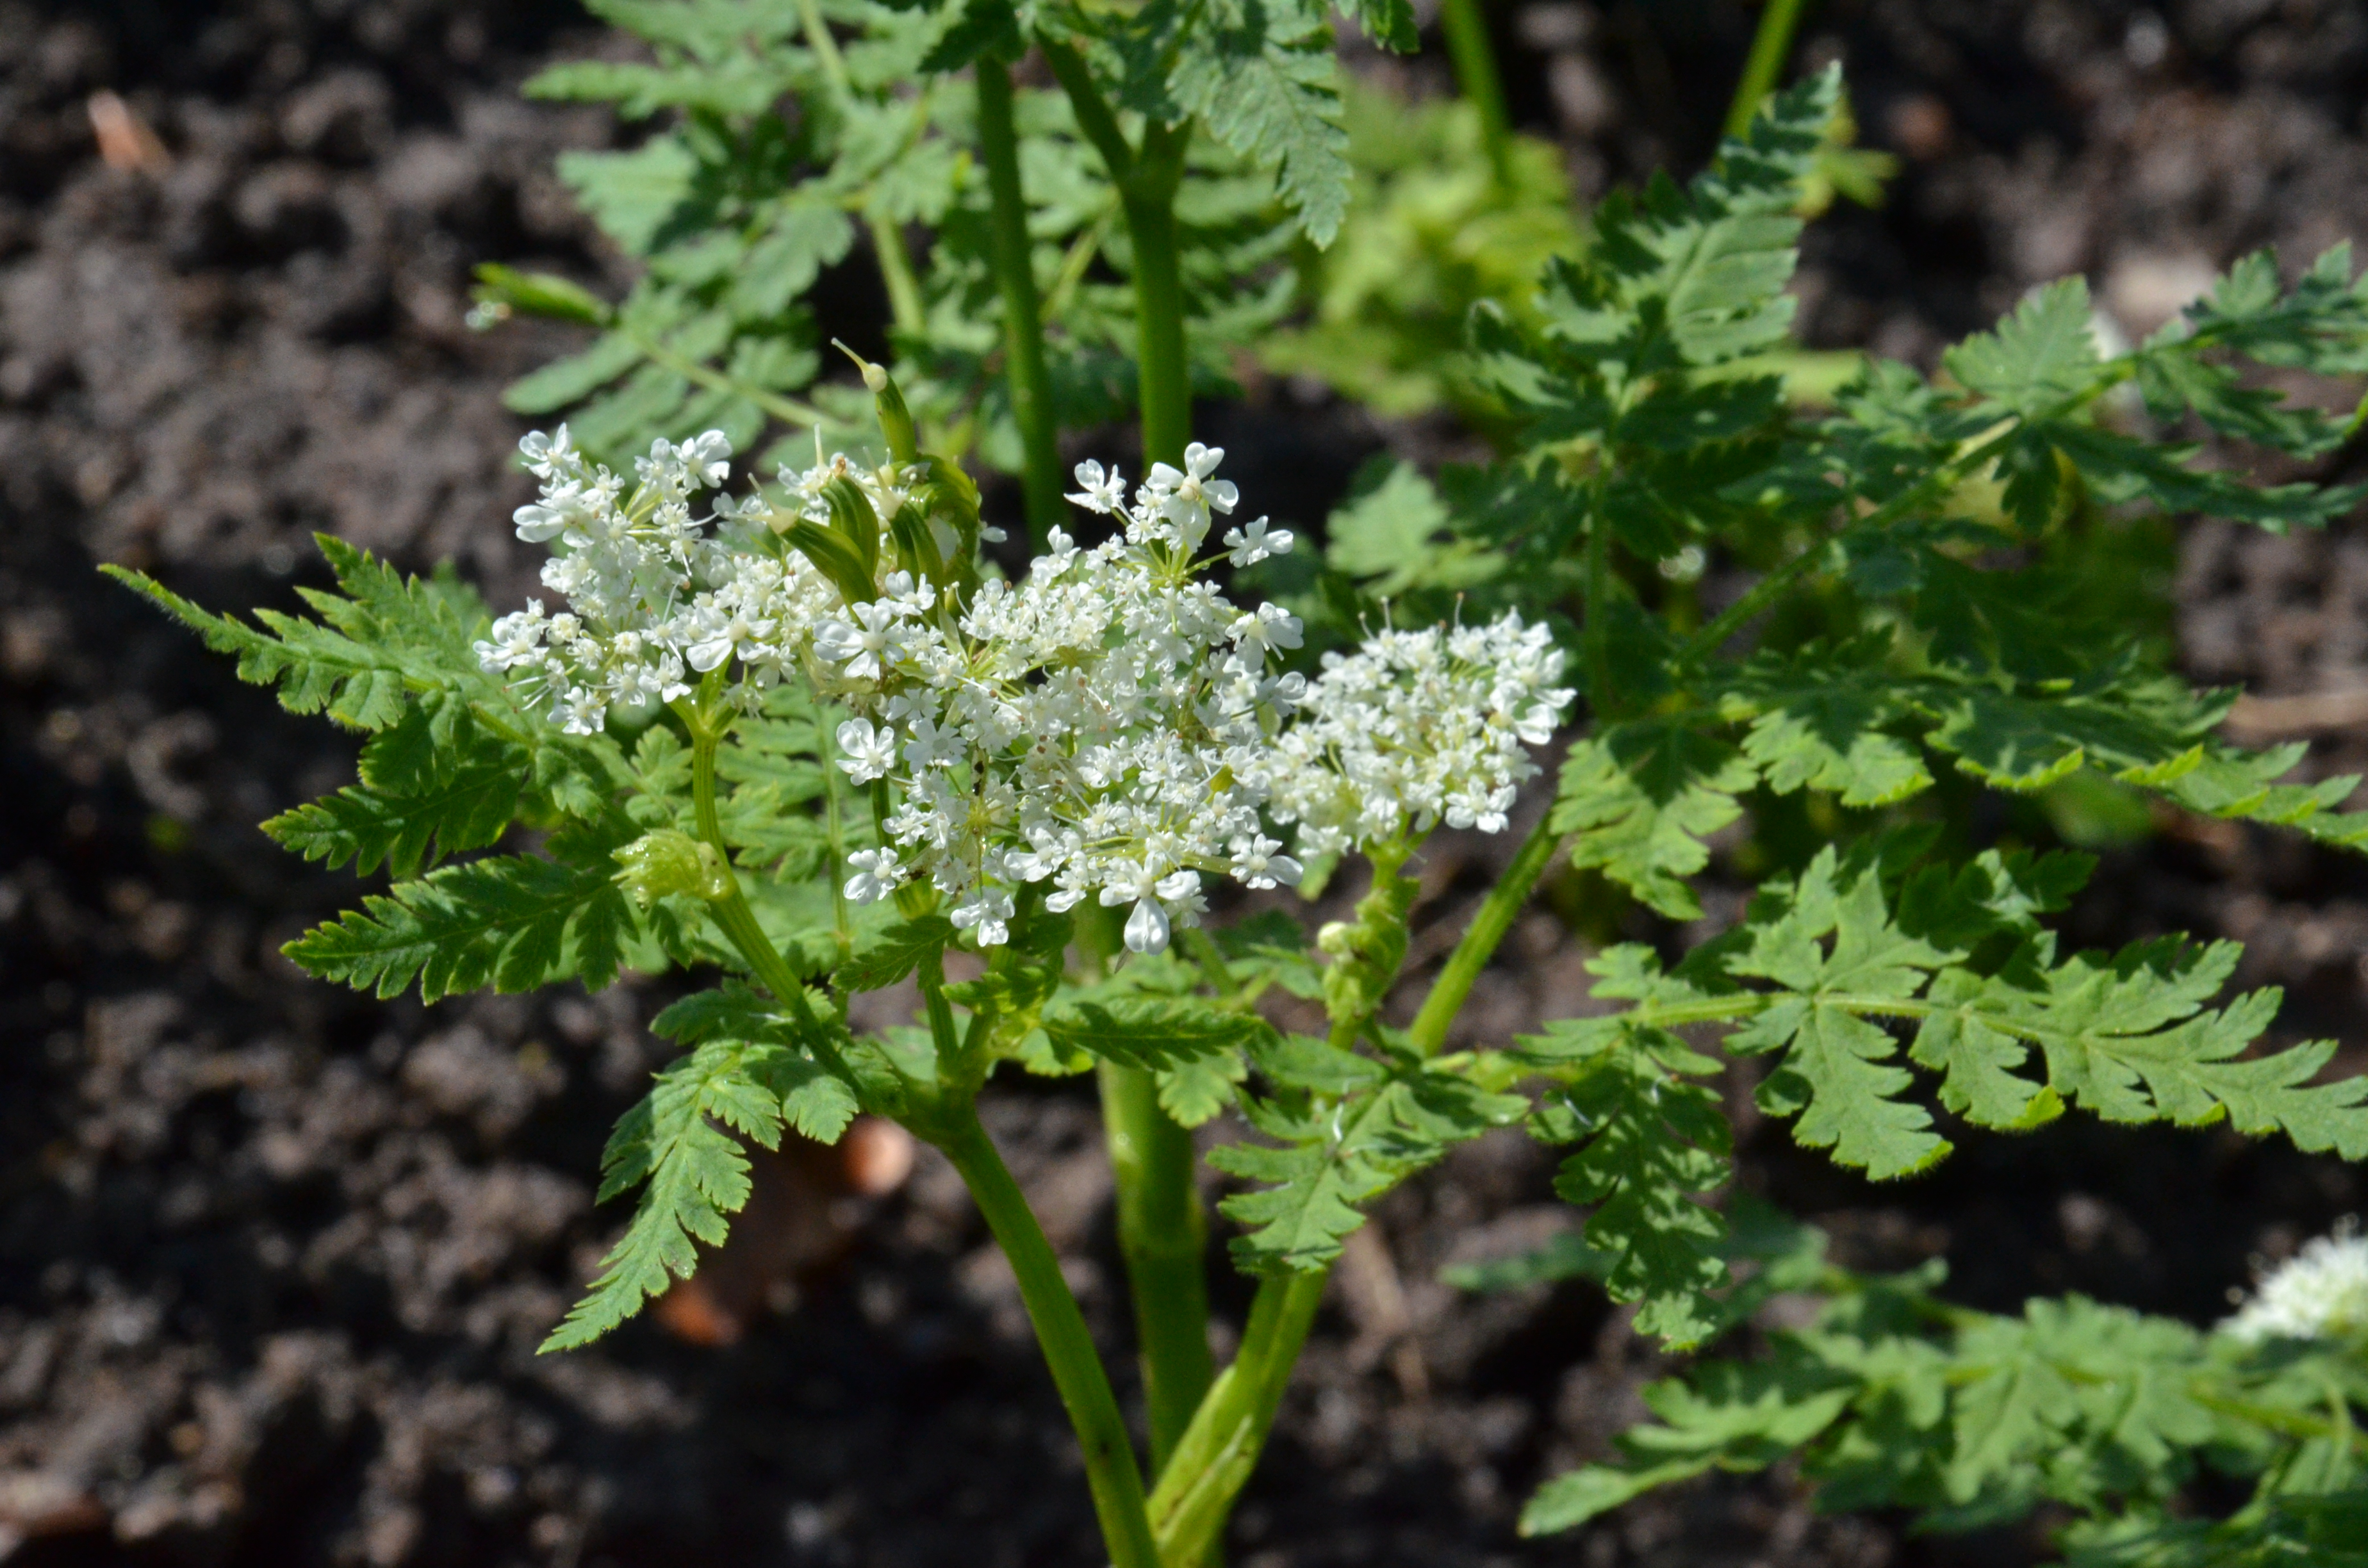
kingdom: Plantae
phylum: Tracheophyta
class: Magnoliopsida
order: Apiales
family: Apiaceae
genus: Myrrhis
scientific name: Myrrhis odorata
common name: Sweet cicely
